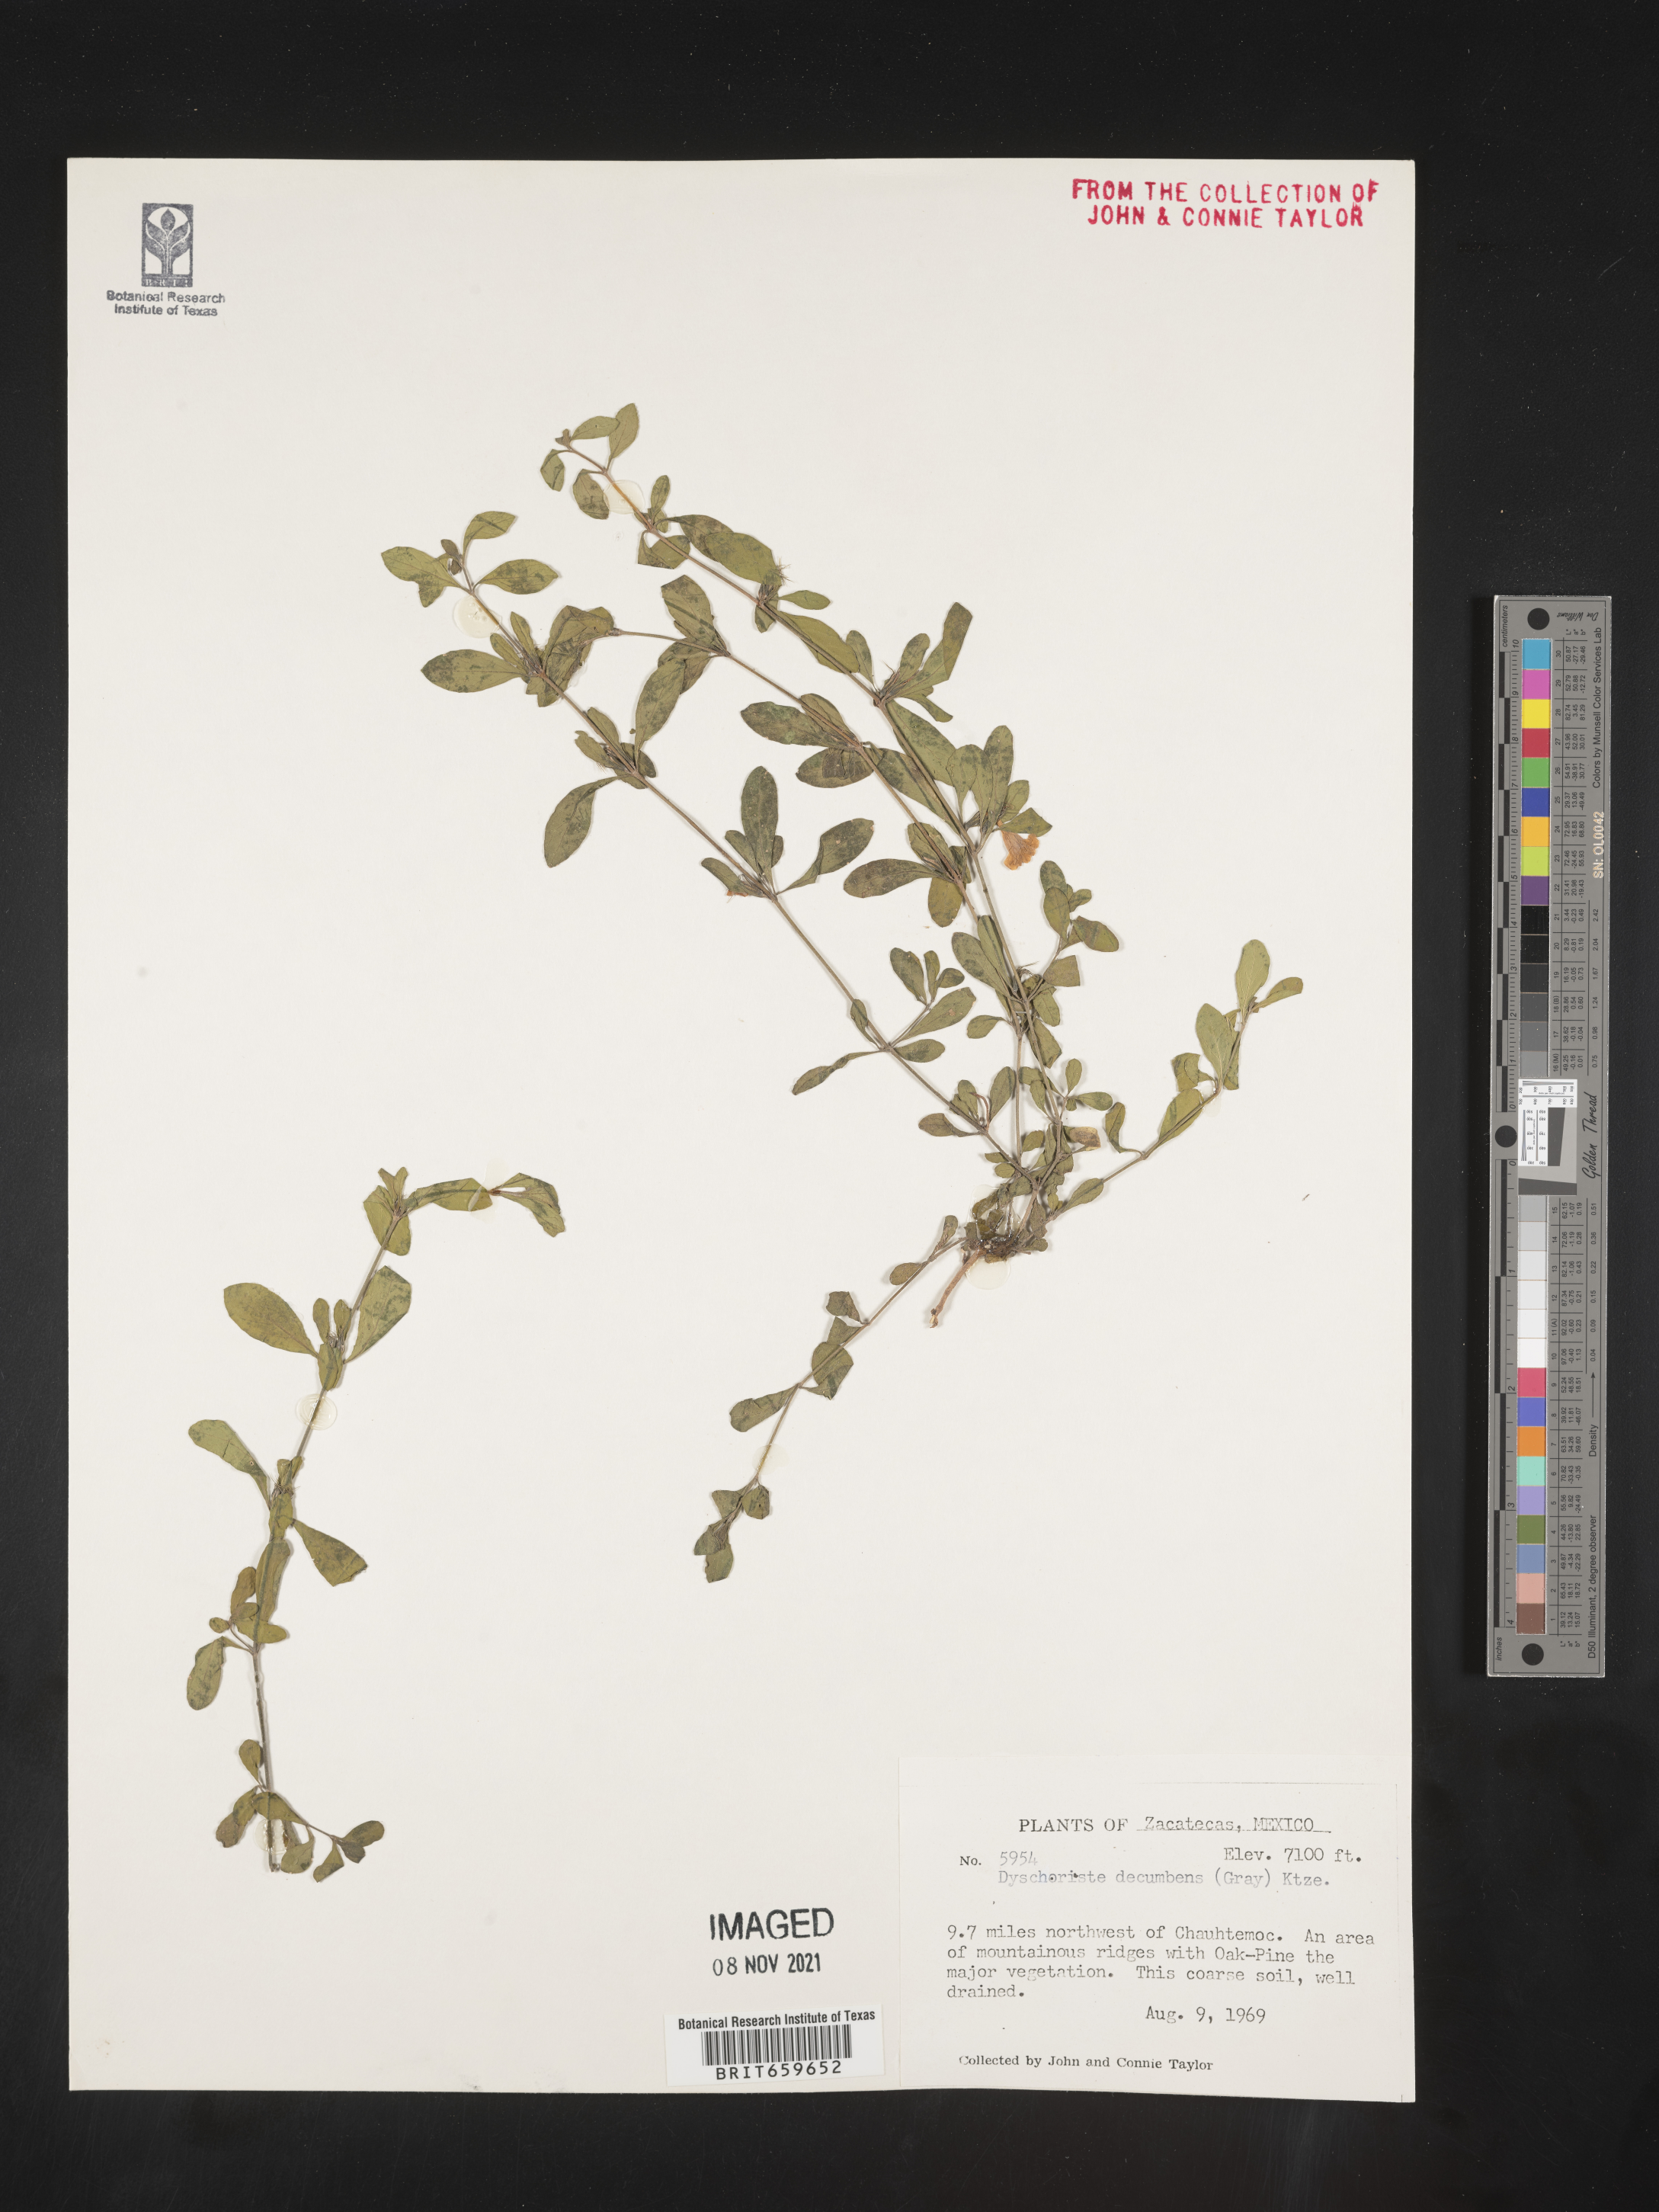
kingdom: Plantae
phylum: Tracheophyta
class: Magnoliopsida
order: Lamiales
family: Acanthaceae
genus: Dyschoriste
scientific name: Dyschoriste
